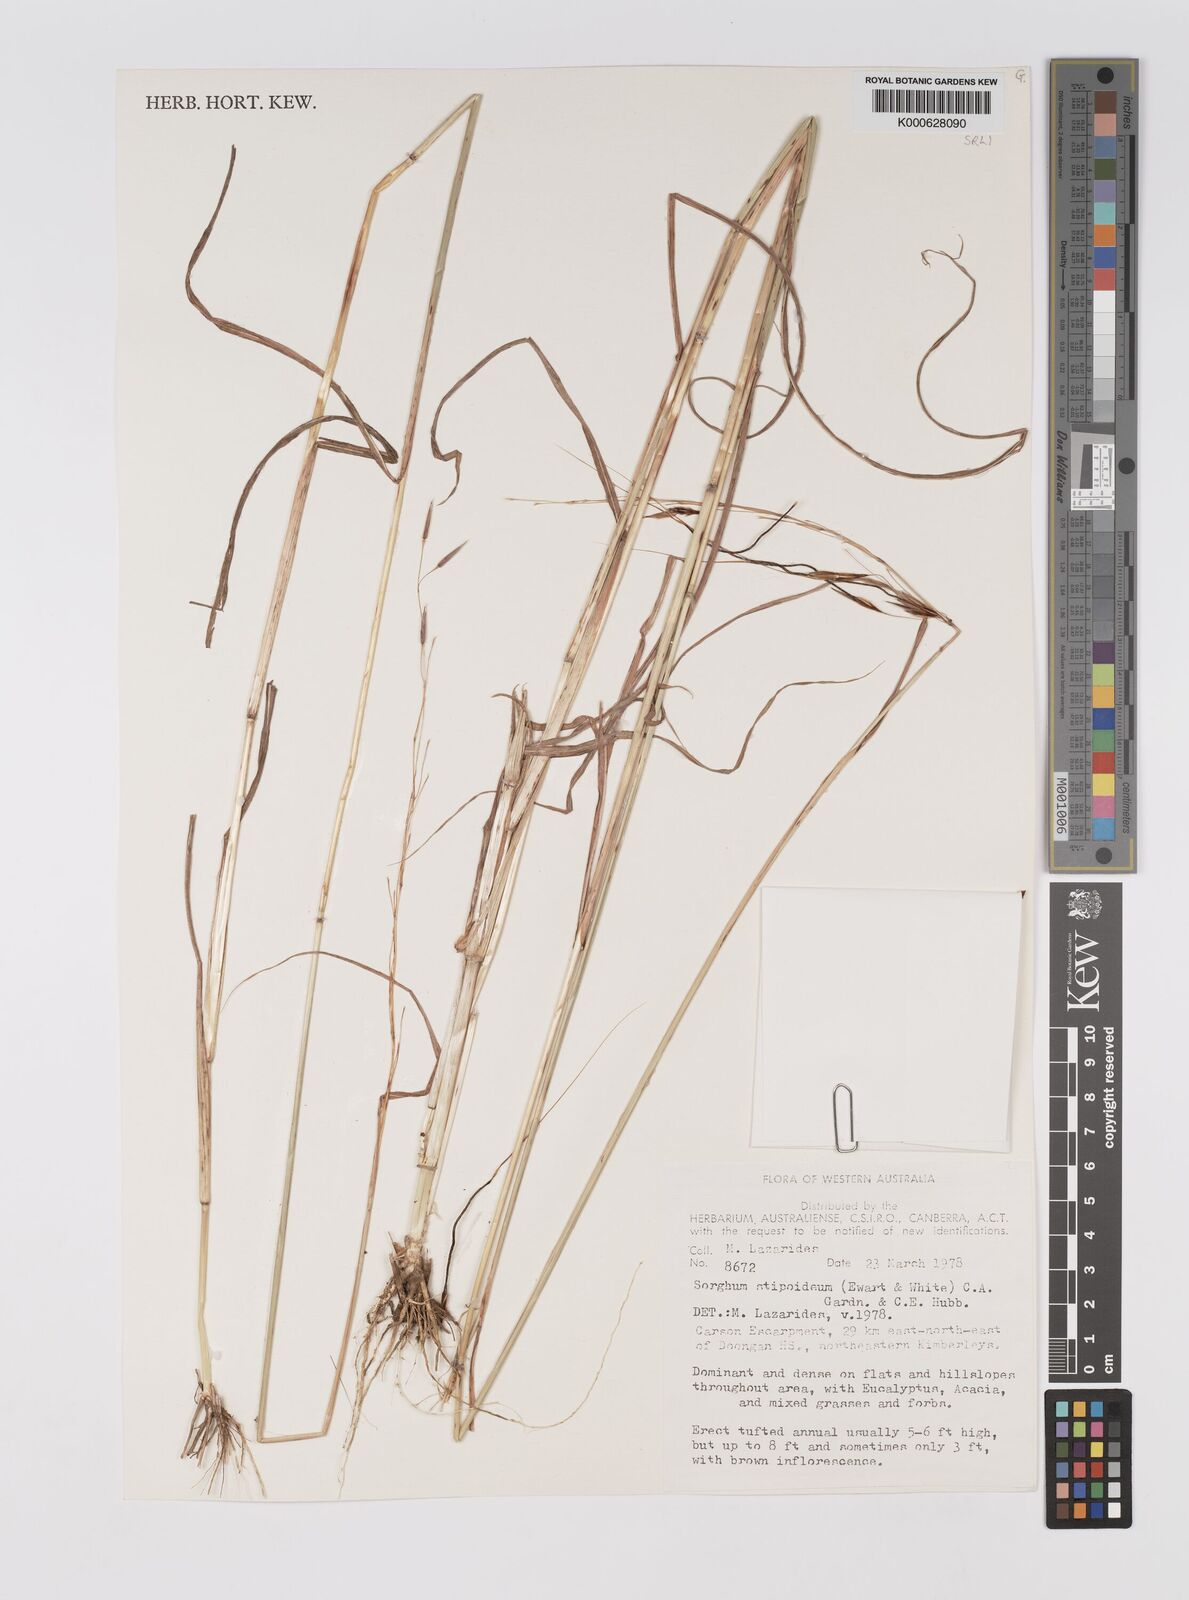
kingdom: Plantae
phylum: Tracheophyta
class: Liliopsida
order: Poales
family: Poaceae
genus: Sarga
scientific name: Sarga stipoidea
